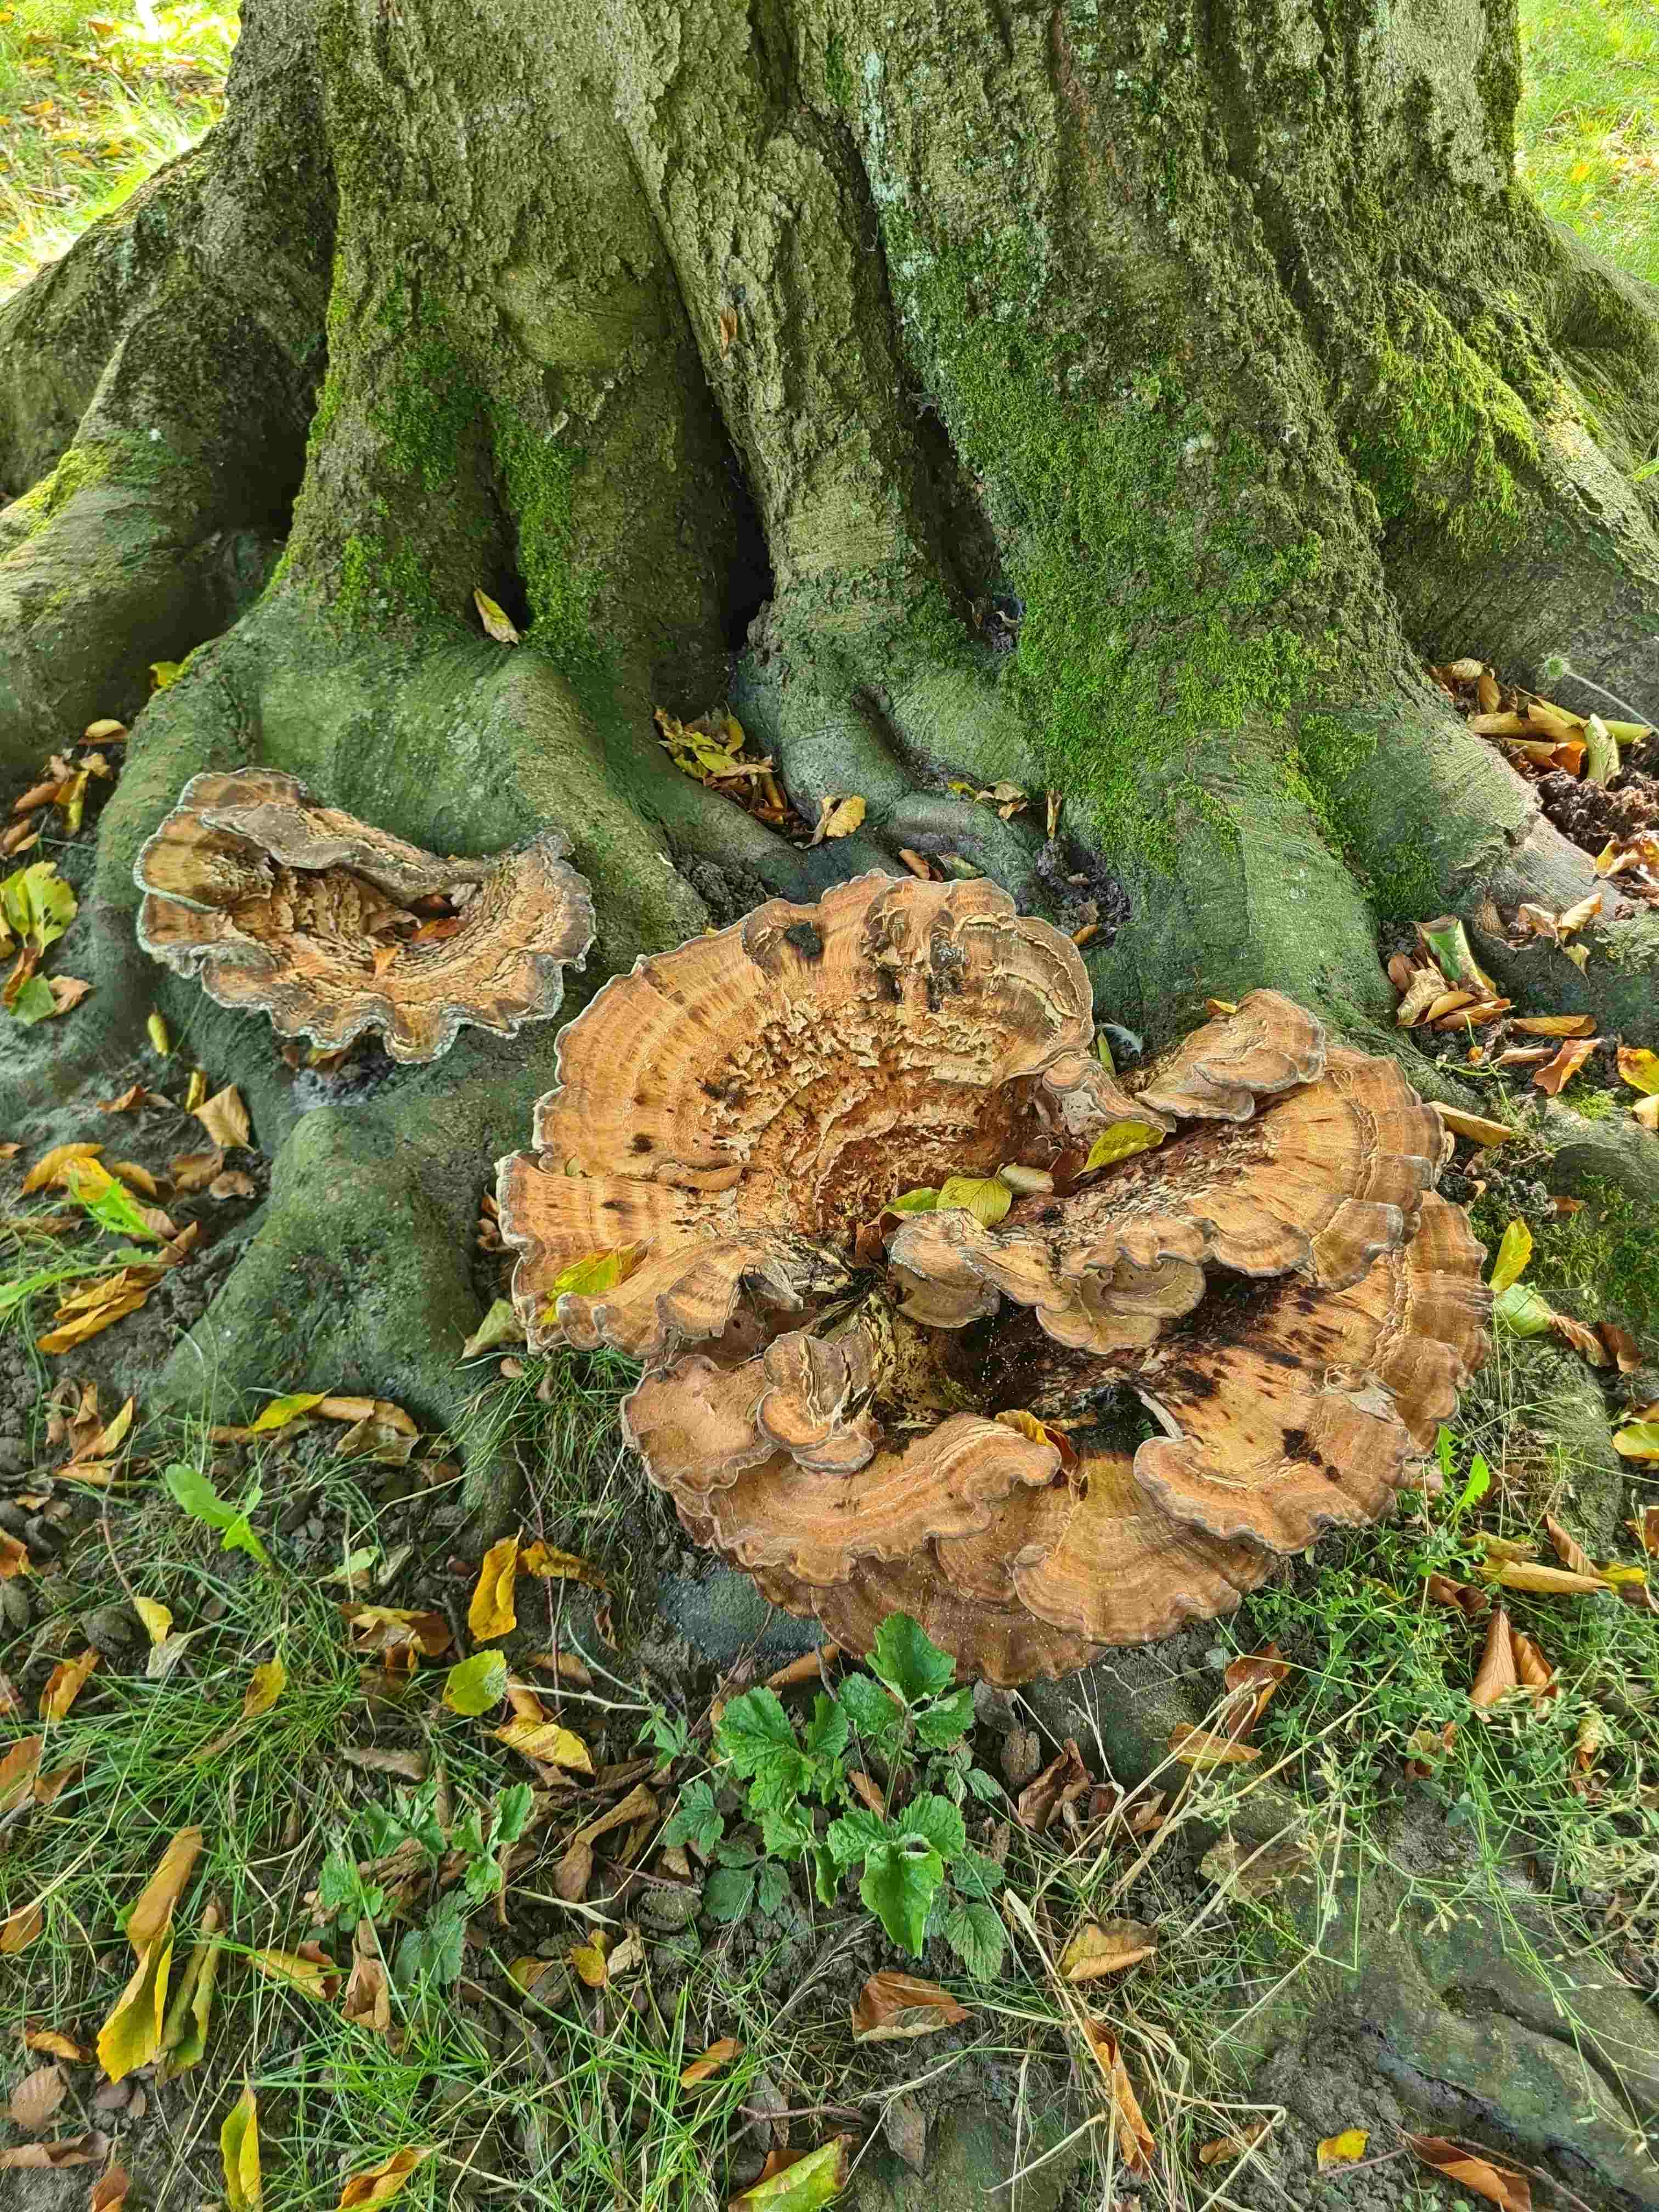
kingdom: Fungi
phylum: Basidiomycota
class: Agaricomycetes
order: Polyporales
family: Meripilaceae
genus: Meripilus
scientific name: Meripilus giganteus
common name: kæmpeporesvamp
